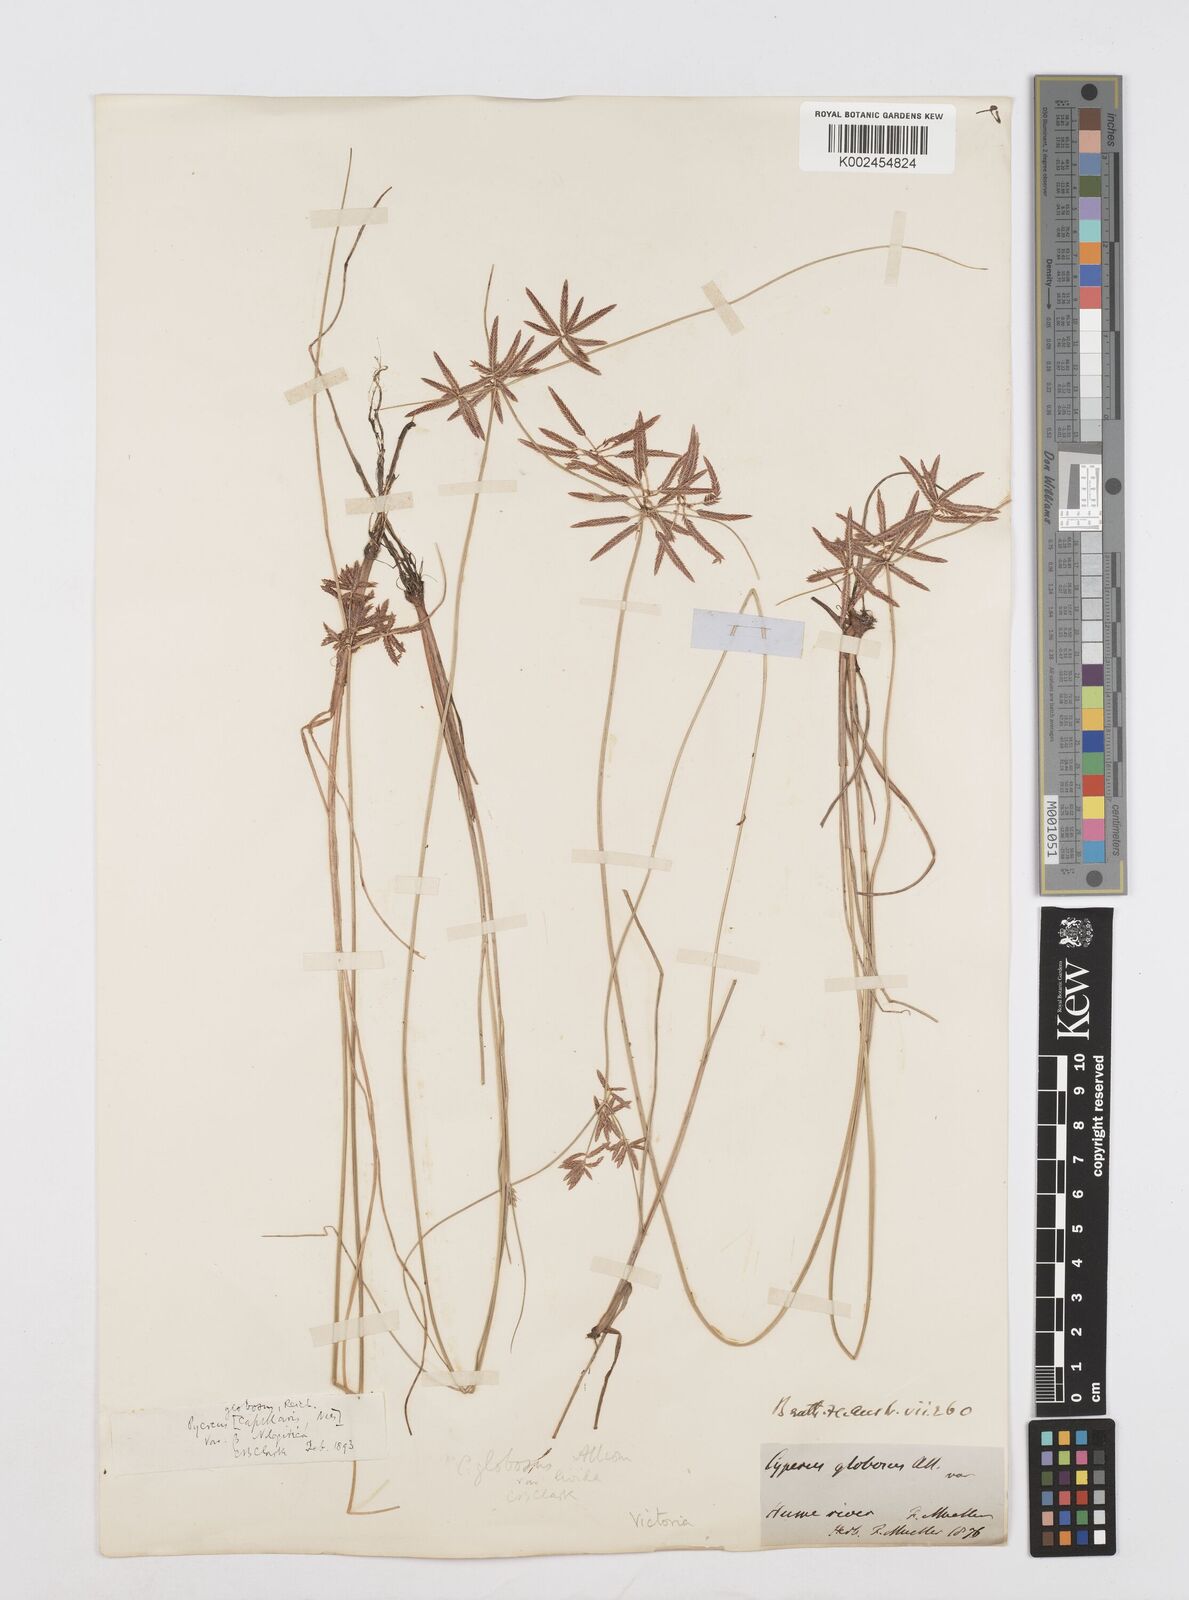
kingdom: Plantae
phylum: Tracheophyta
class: Liliopsida
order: Poales
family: Cyperaceae
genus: Cyperus
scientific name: Cyperus flavidus
